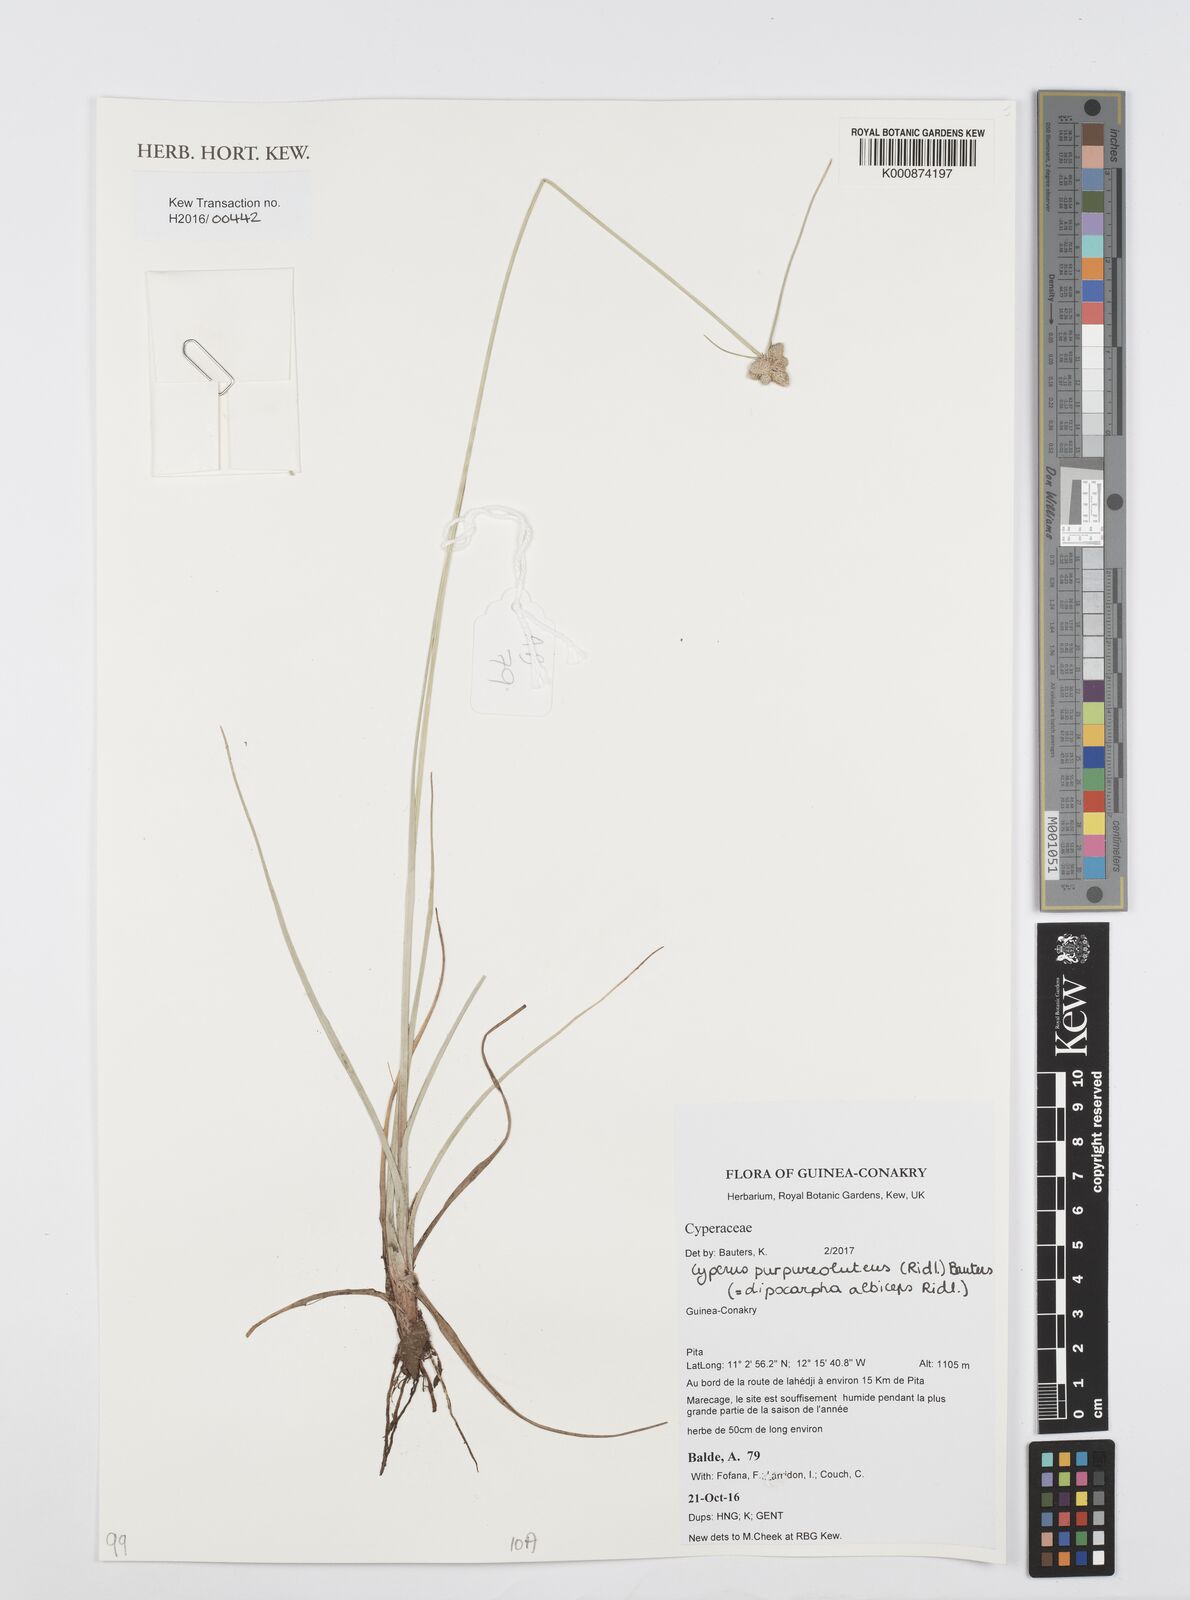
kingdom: Plantae
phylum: Tracheophyta
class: Liliopsida
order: Poales
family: Cyperaceae
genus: Cyperus
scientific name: Cyperus albiceps
